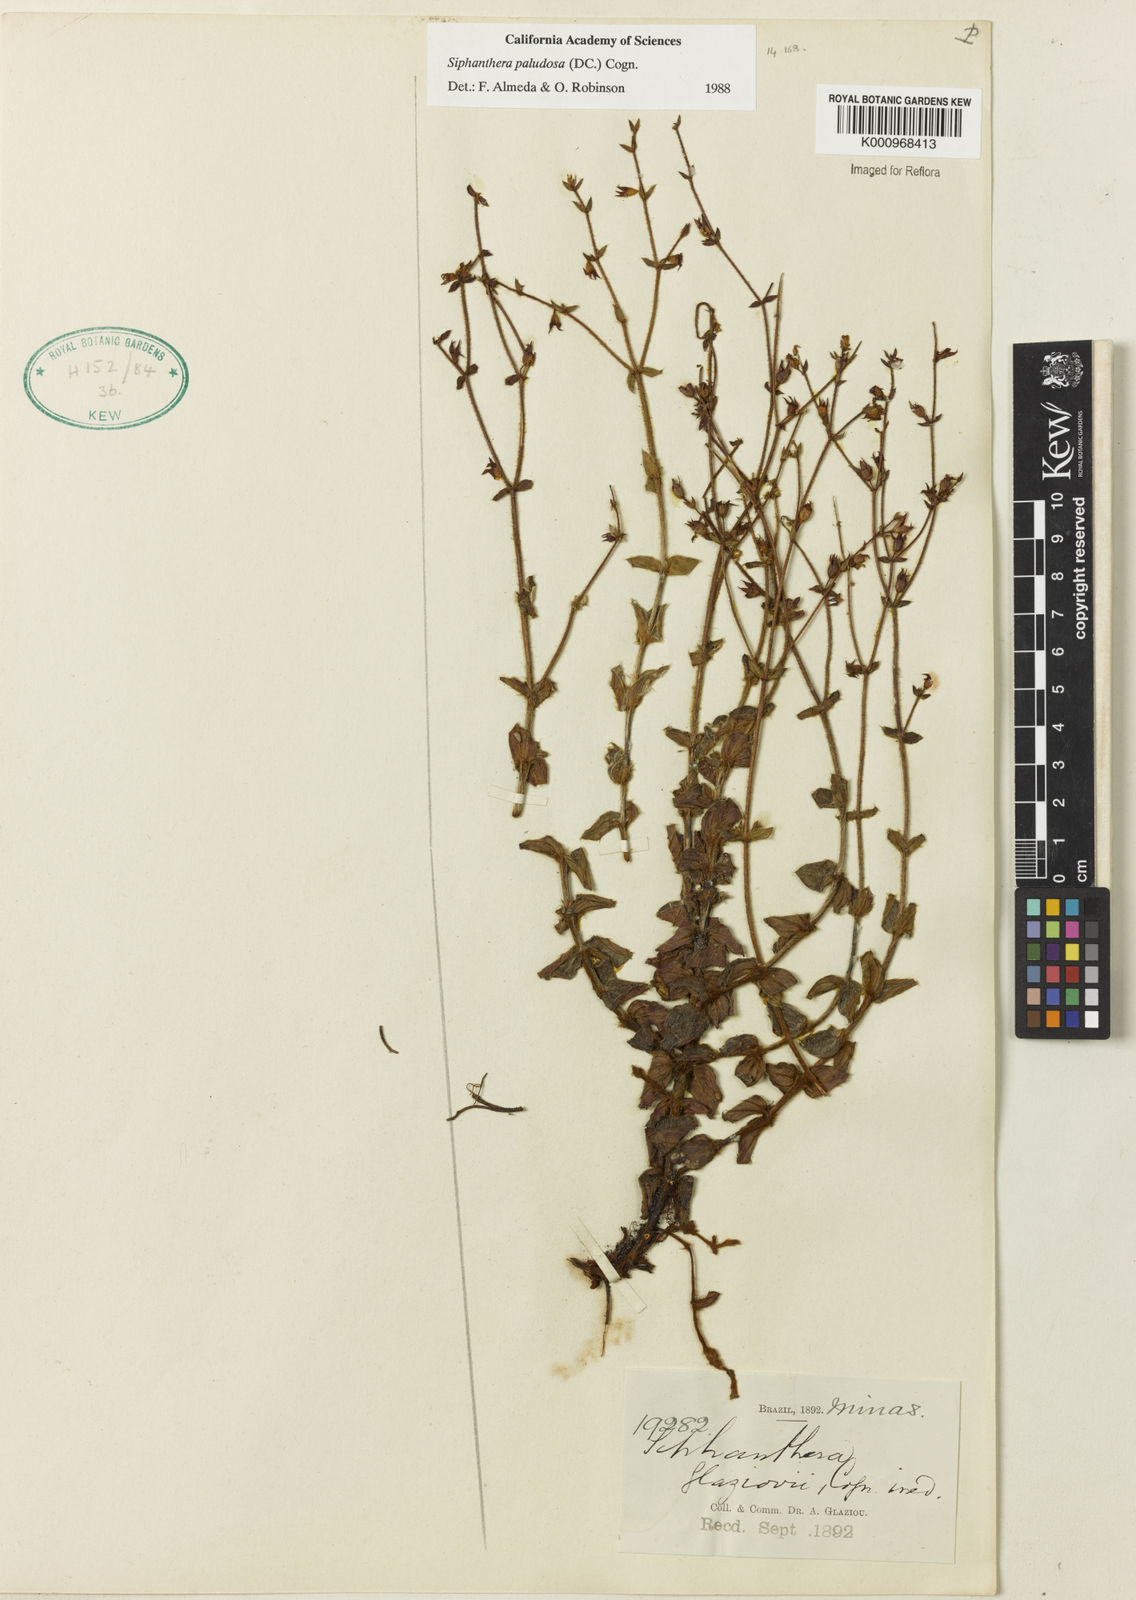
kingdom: Plantae
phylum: Tracheophyta
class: Magnoliopsida
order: Myrtales
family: Melastomataceae
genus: Siphanthera
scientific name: Siphanthera paludosa
